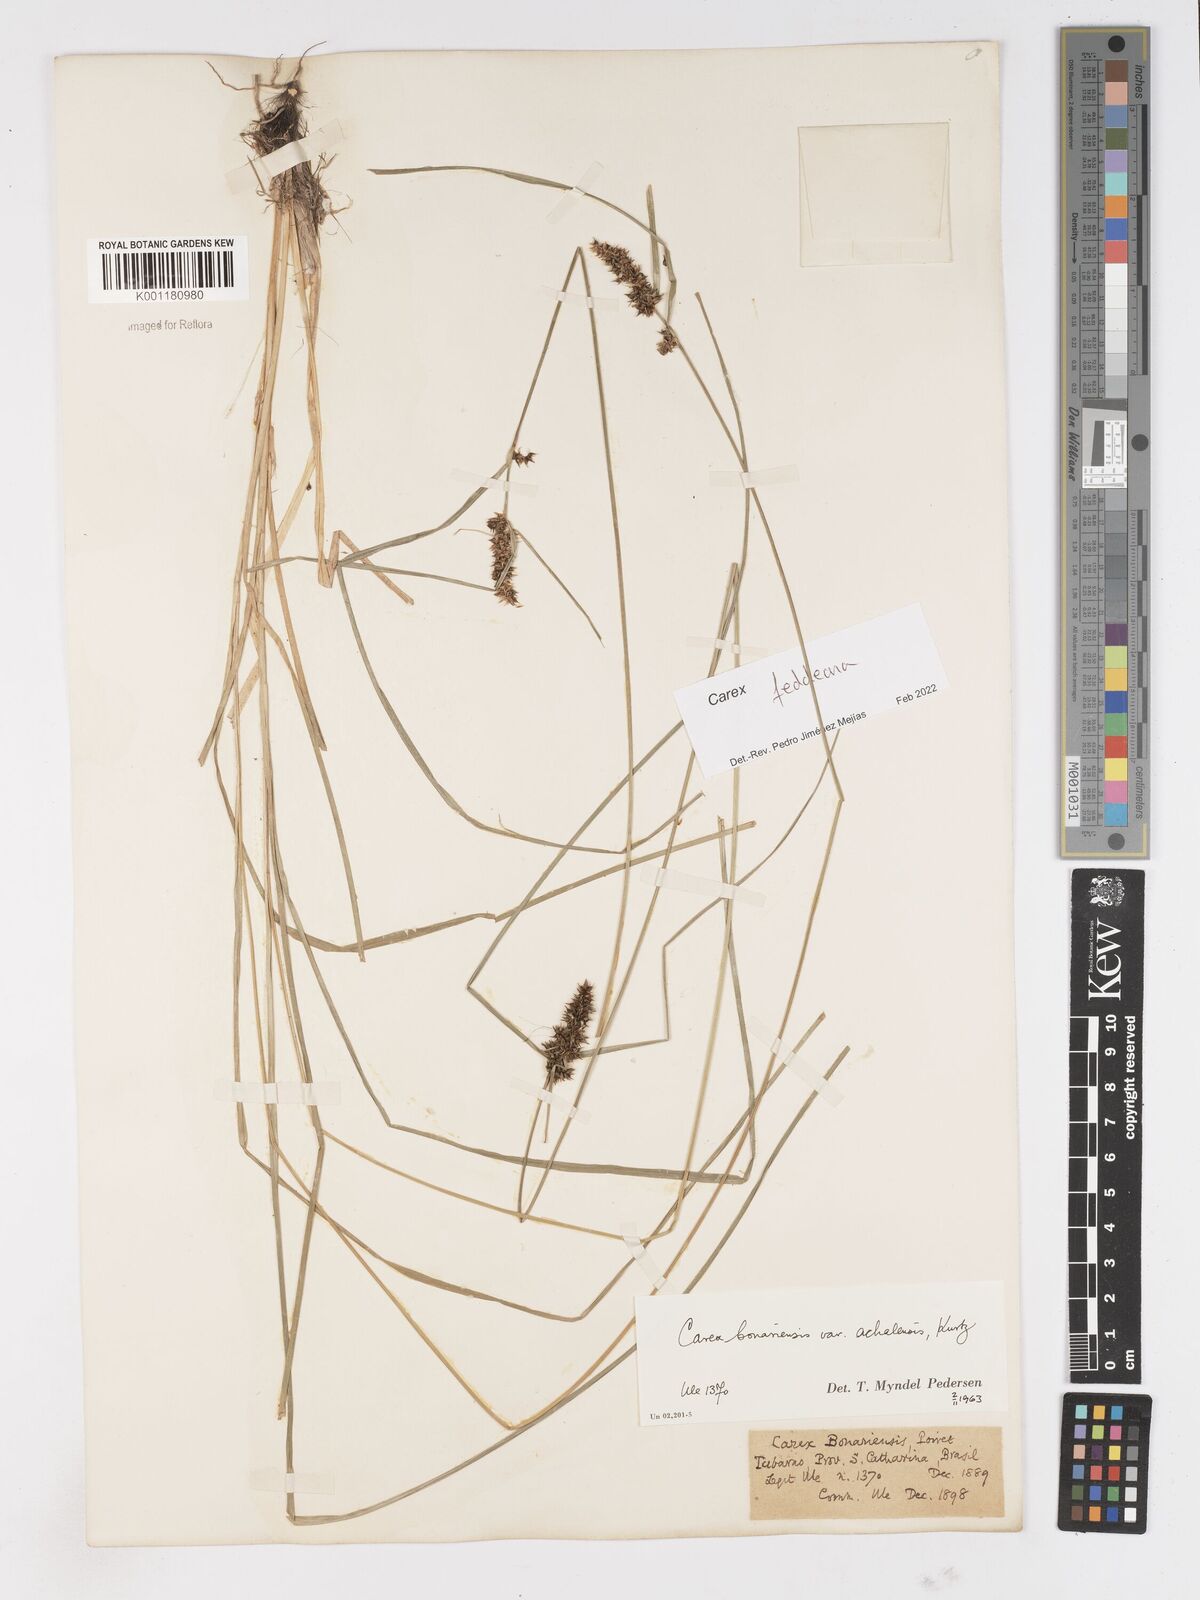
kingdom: Plantae
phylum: Tracheophyta
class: Liliopsida
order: Poales
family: Cyperaceae
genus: Carex
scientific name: Carex bonariensis
